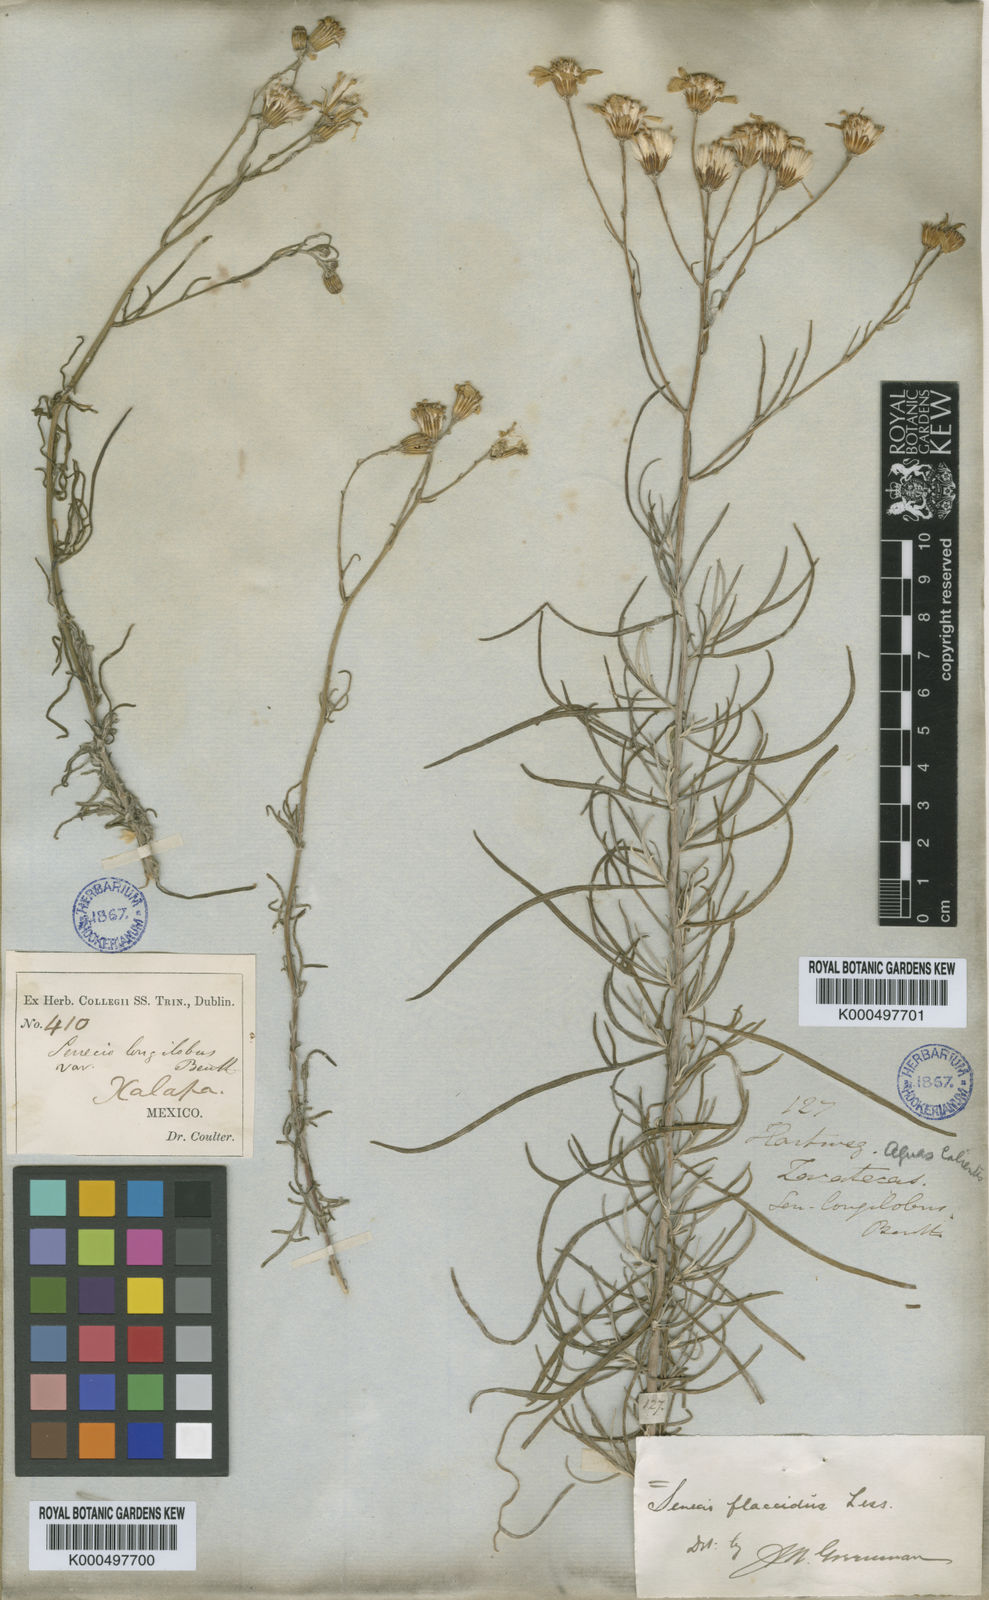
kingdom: Plantae
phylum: Tracheophyta
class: Magnoliopsida
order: Asterales
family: Asteraceae
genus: Senecio
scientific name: Senecio flaccidus
